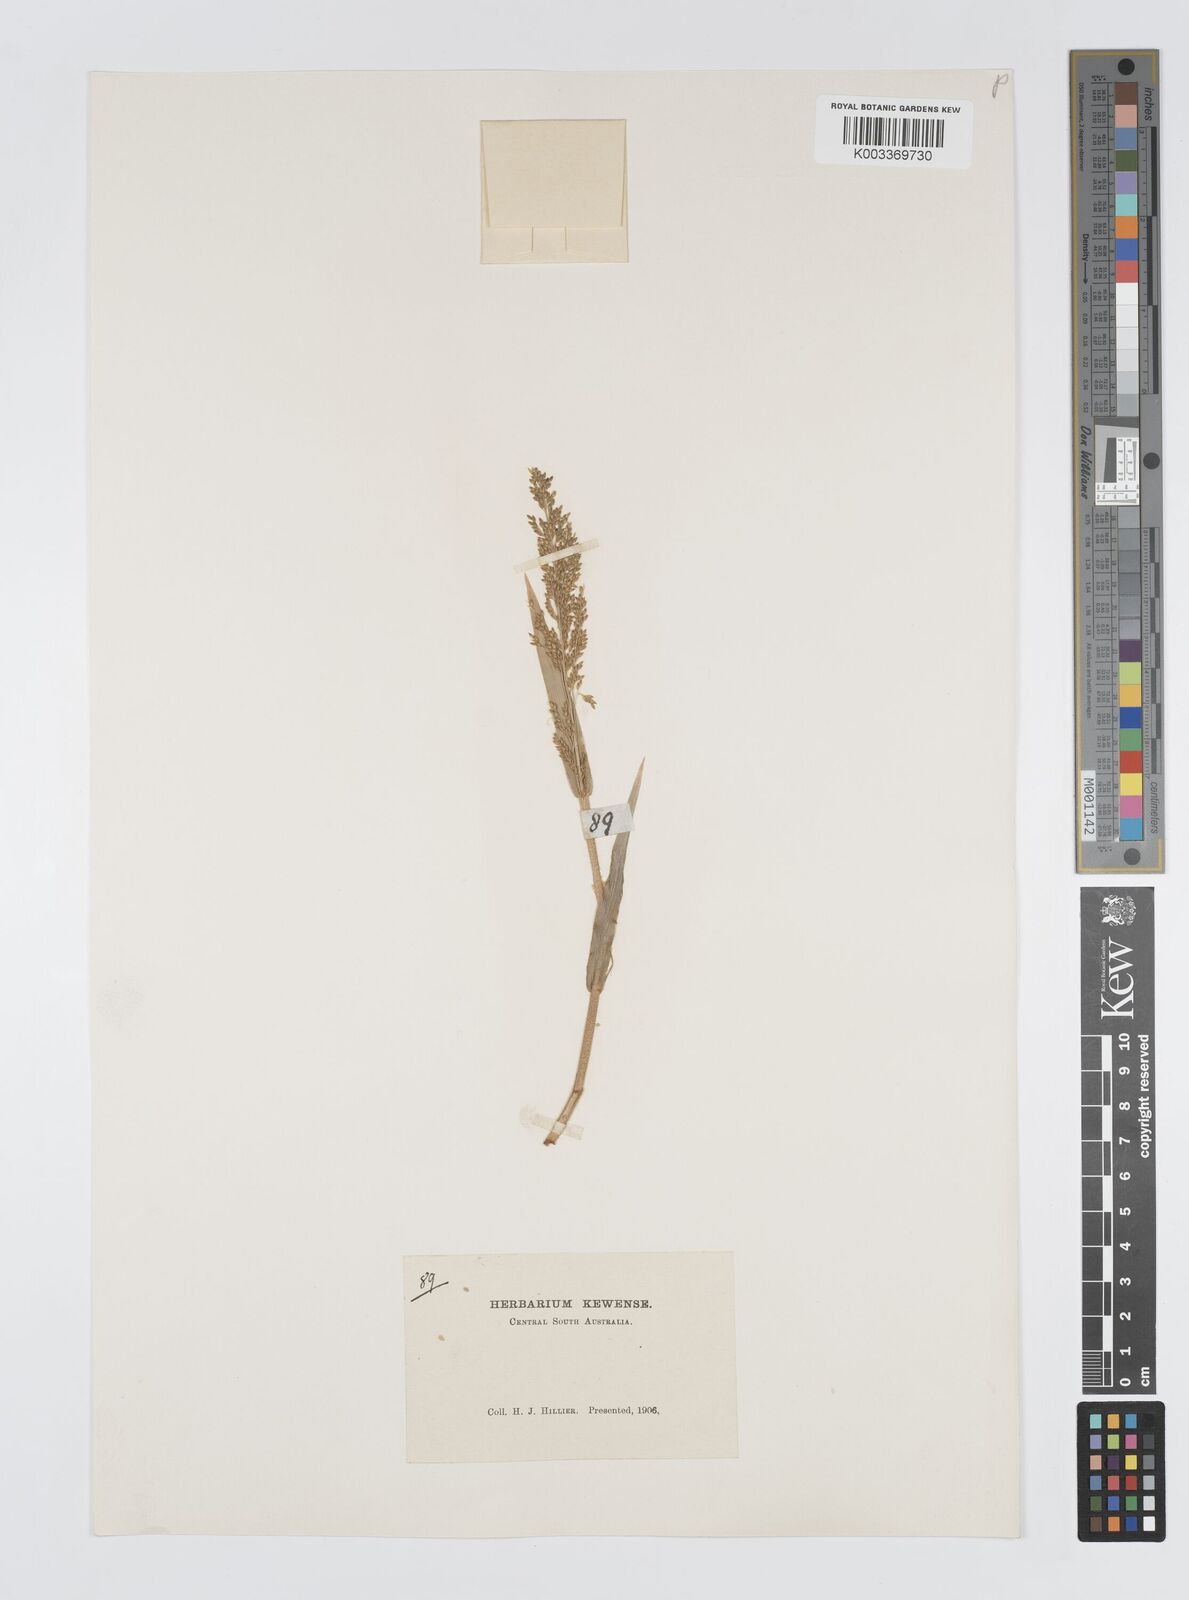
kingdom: Plantae
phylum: Tracheophyta
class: Liliopsida
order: Poales
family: Poaceae
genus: Panicum
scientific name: Panicum laevinode
